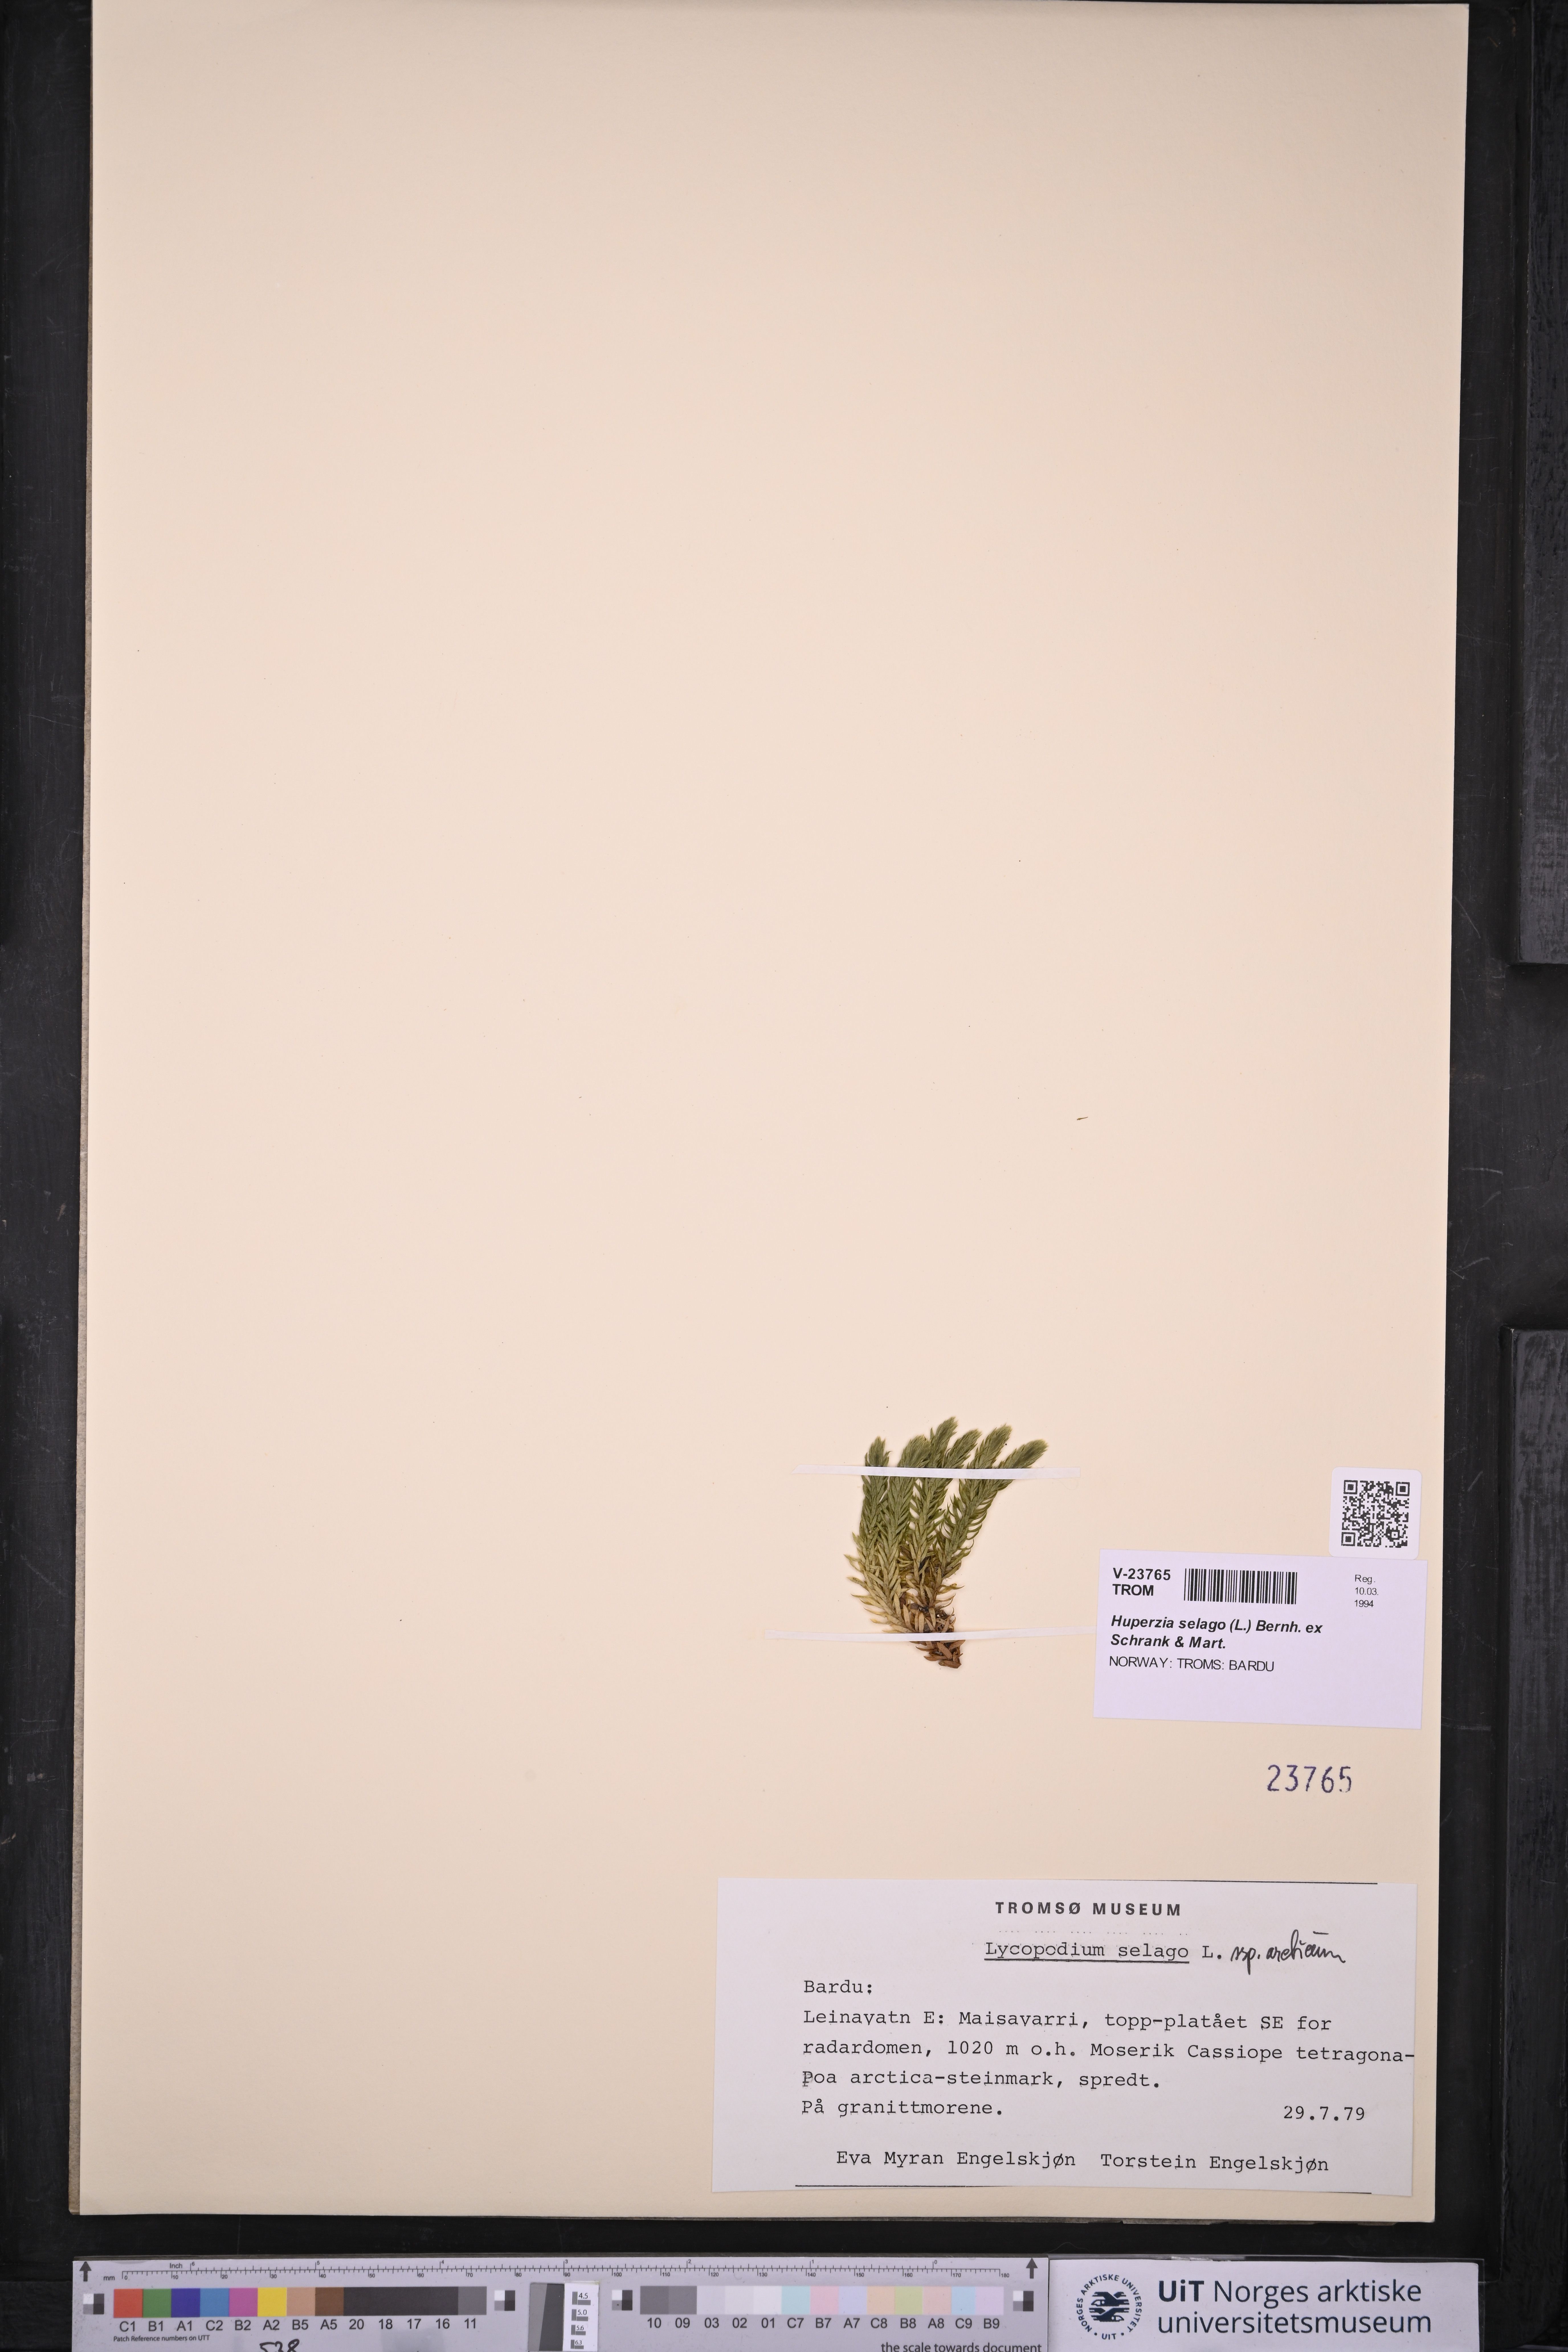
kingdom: Plantae
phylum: Tracheophyta
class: Lycopodiopsida
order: Lycopodiales
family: Lycopodiaceae
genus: Huperzia
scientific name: Huperzia selago
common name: Northern firmoss
